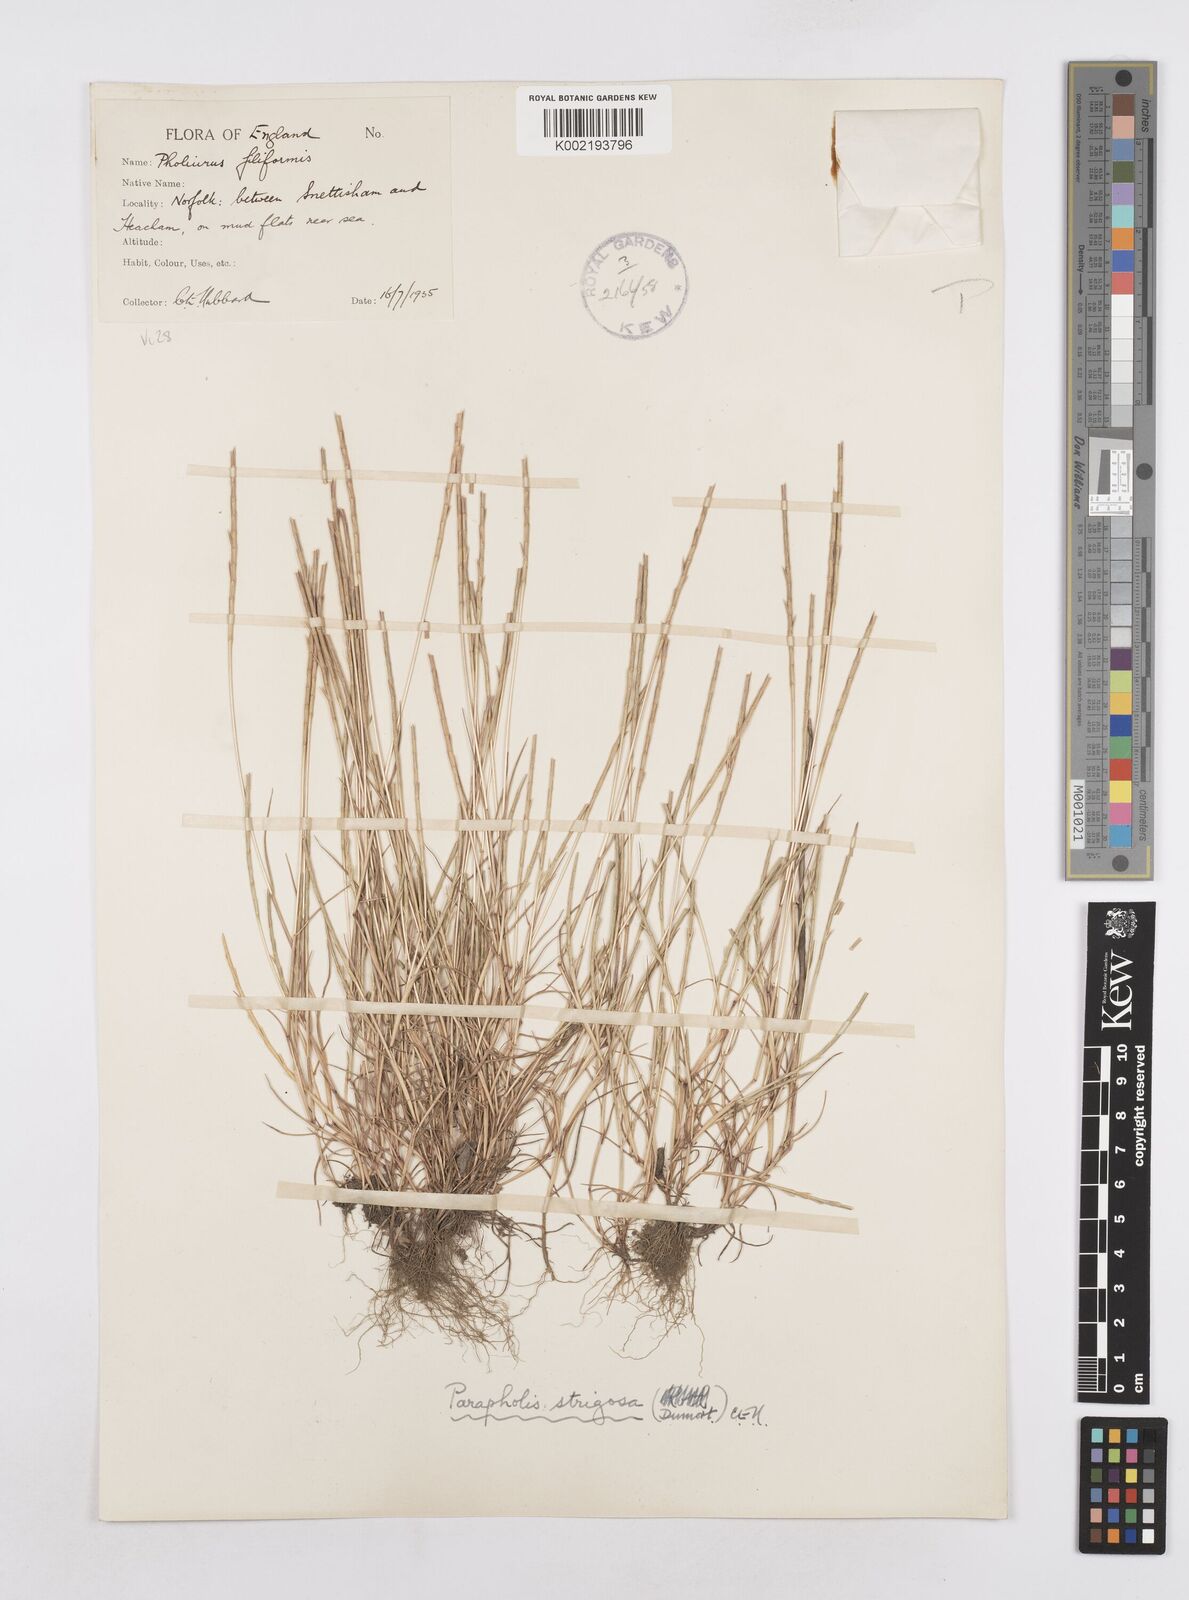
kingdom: Plantae
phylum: Tracheophyta
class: Liliopsida
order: Poales
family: Poaceae
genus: Parapholis
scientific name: Parapholis
